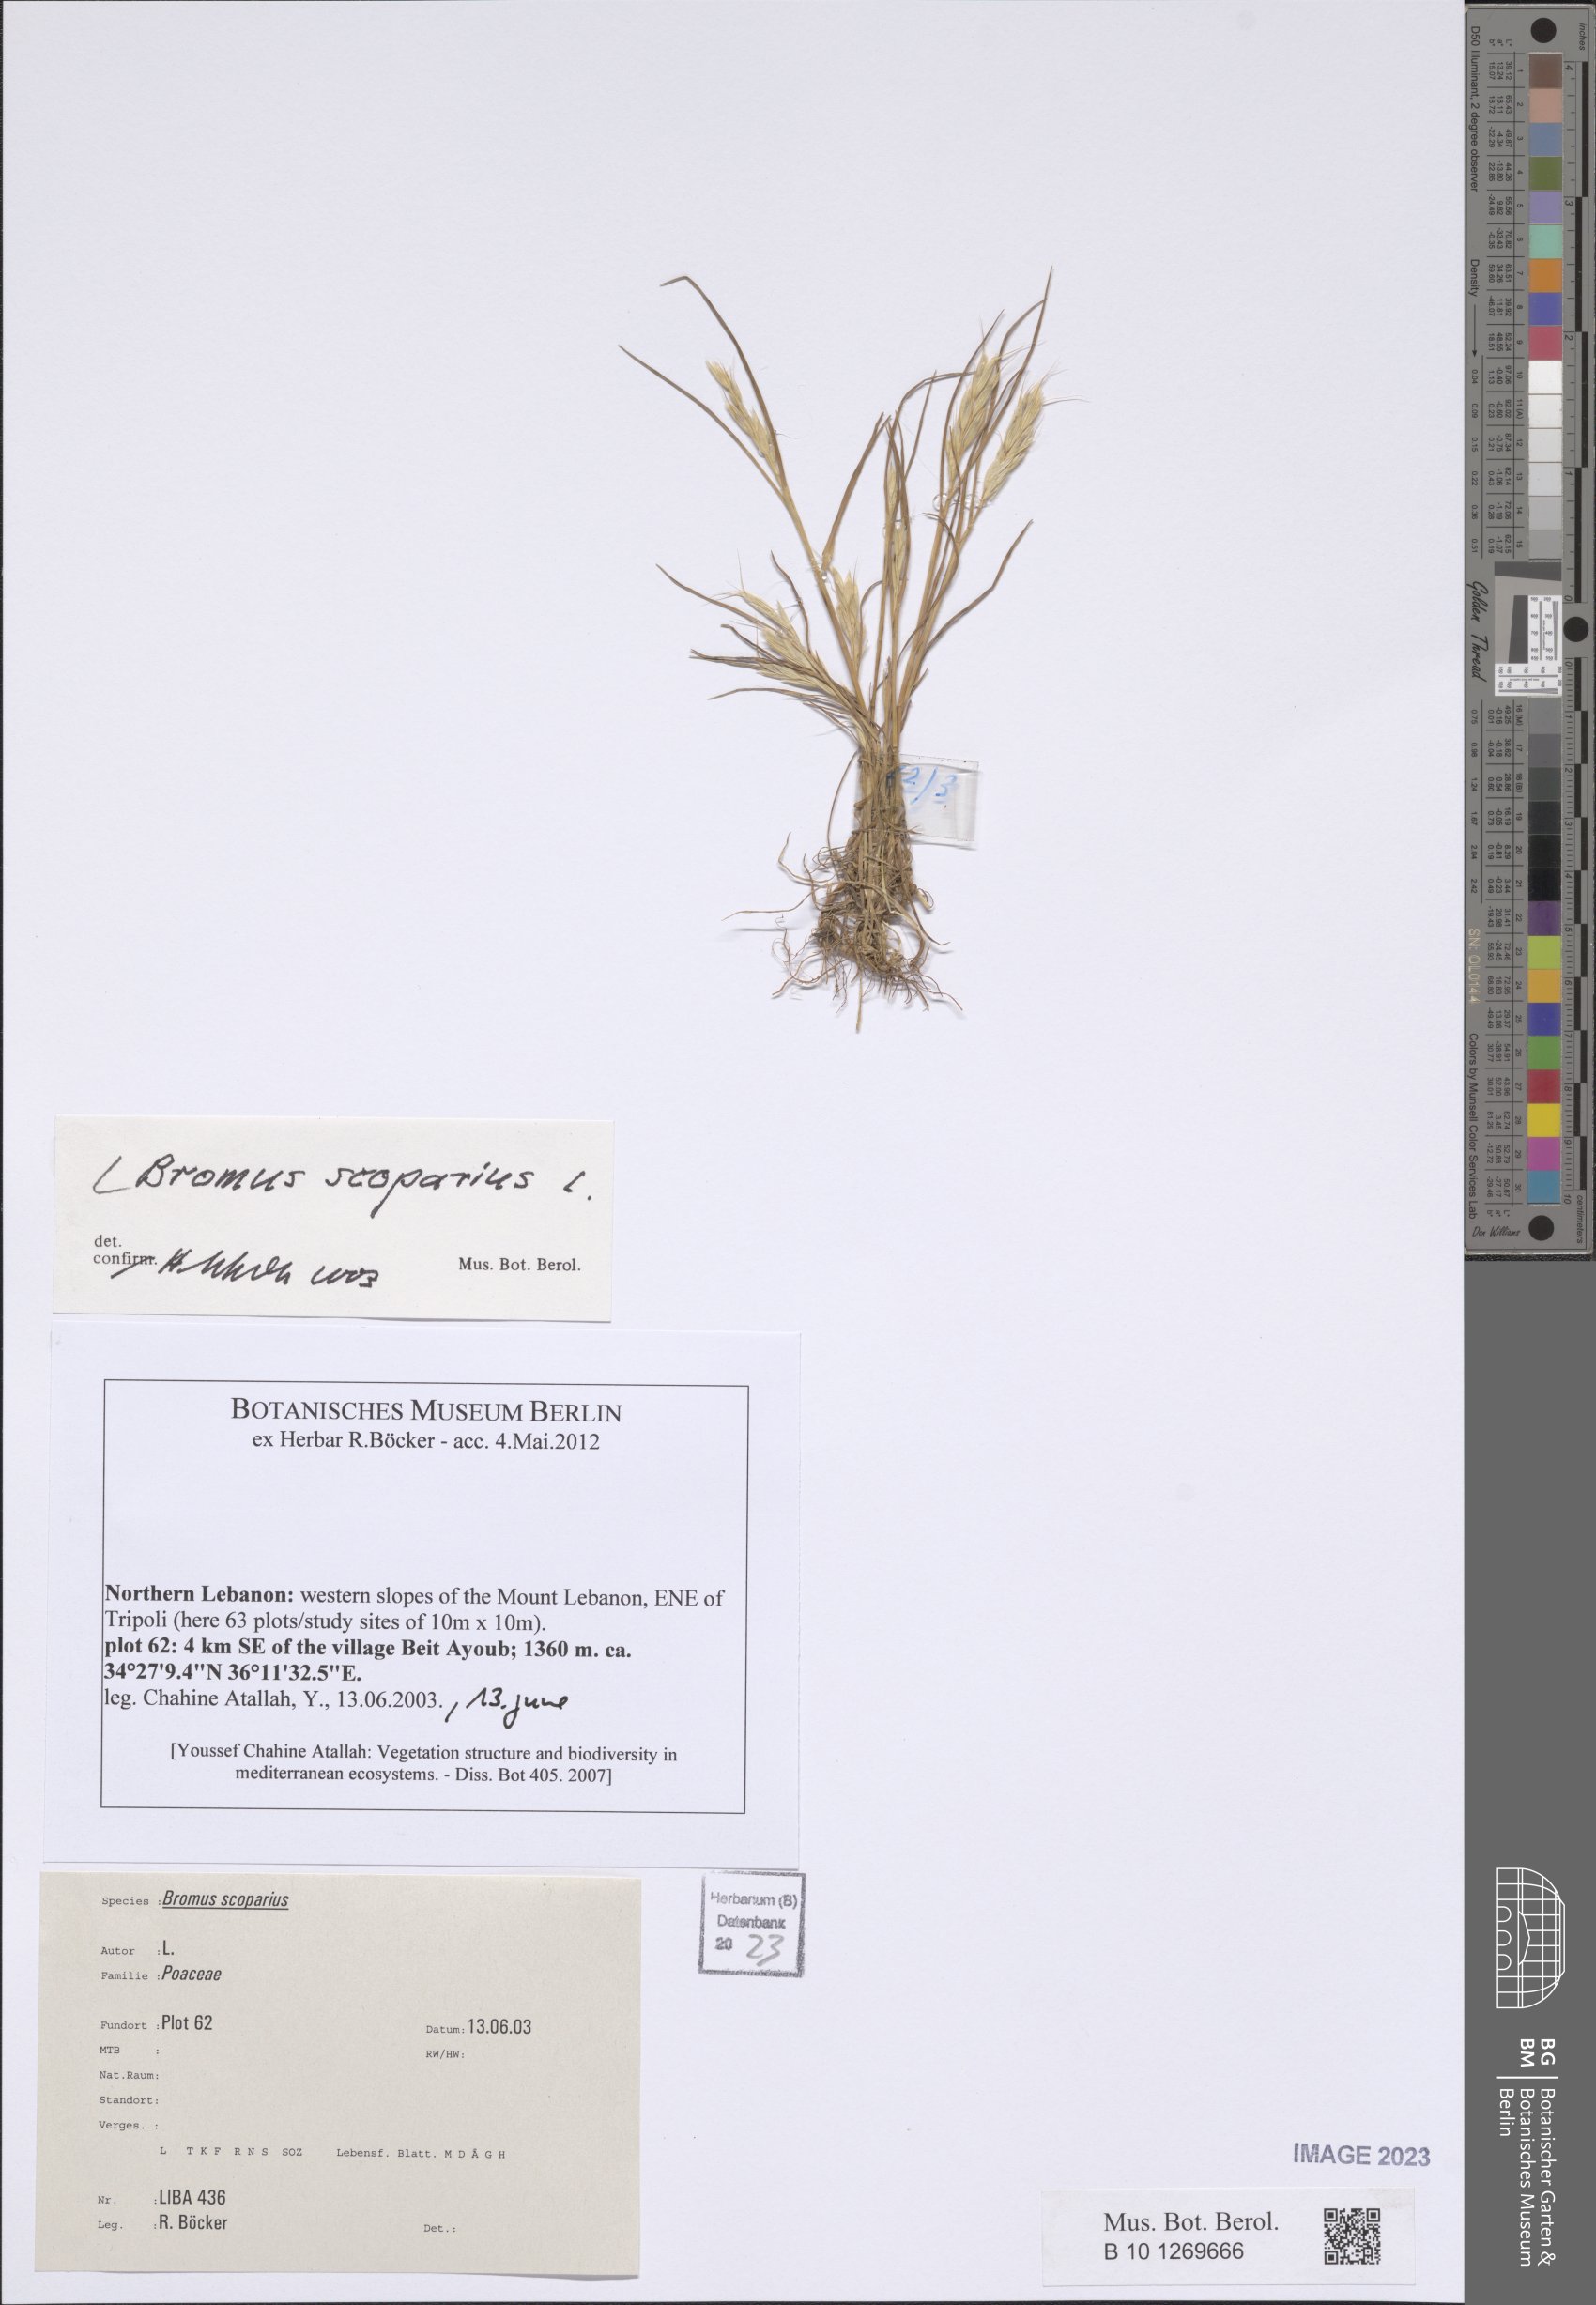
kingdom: Plantae
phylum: Tracheophyta
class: Liliopsida
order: Poales
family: Poaceae
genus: Bromus
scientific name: Bromus scoparius
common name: Broom brome
